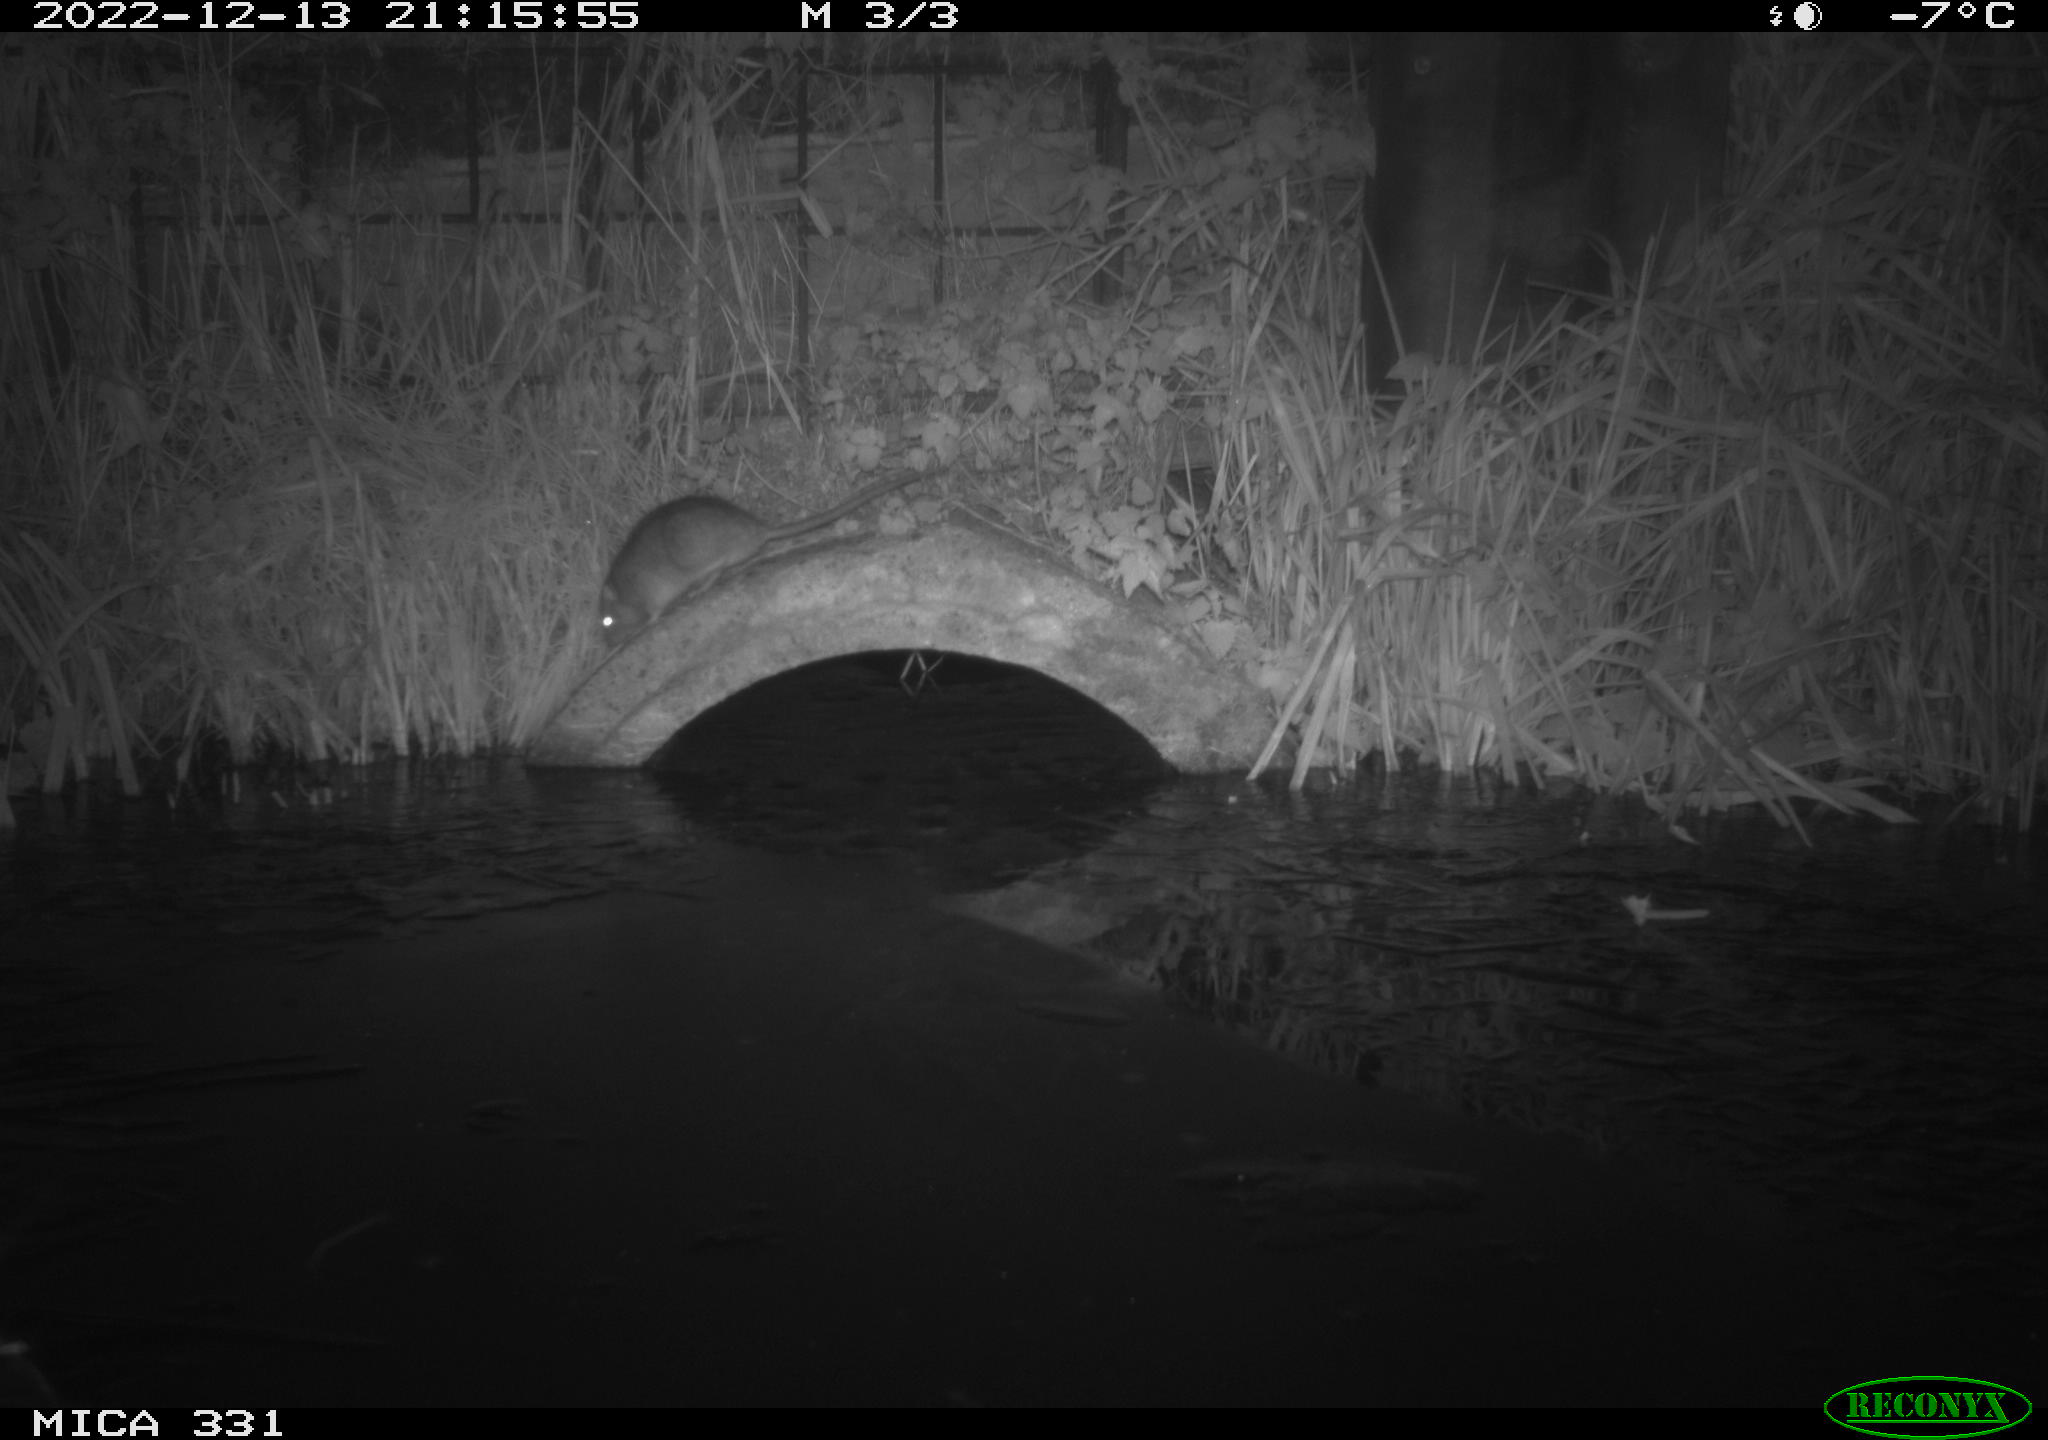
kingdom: Animalia
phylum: Chordata
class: Mammalia
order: Rodentia
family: Muridae
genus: Rattus
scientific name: Rattus norvegicus
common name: Brown rat
